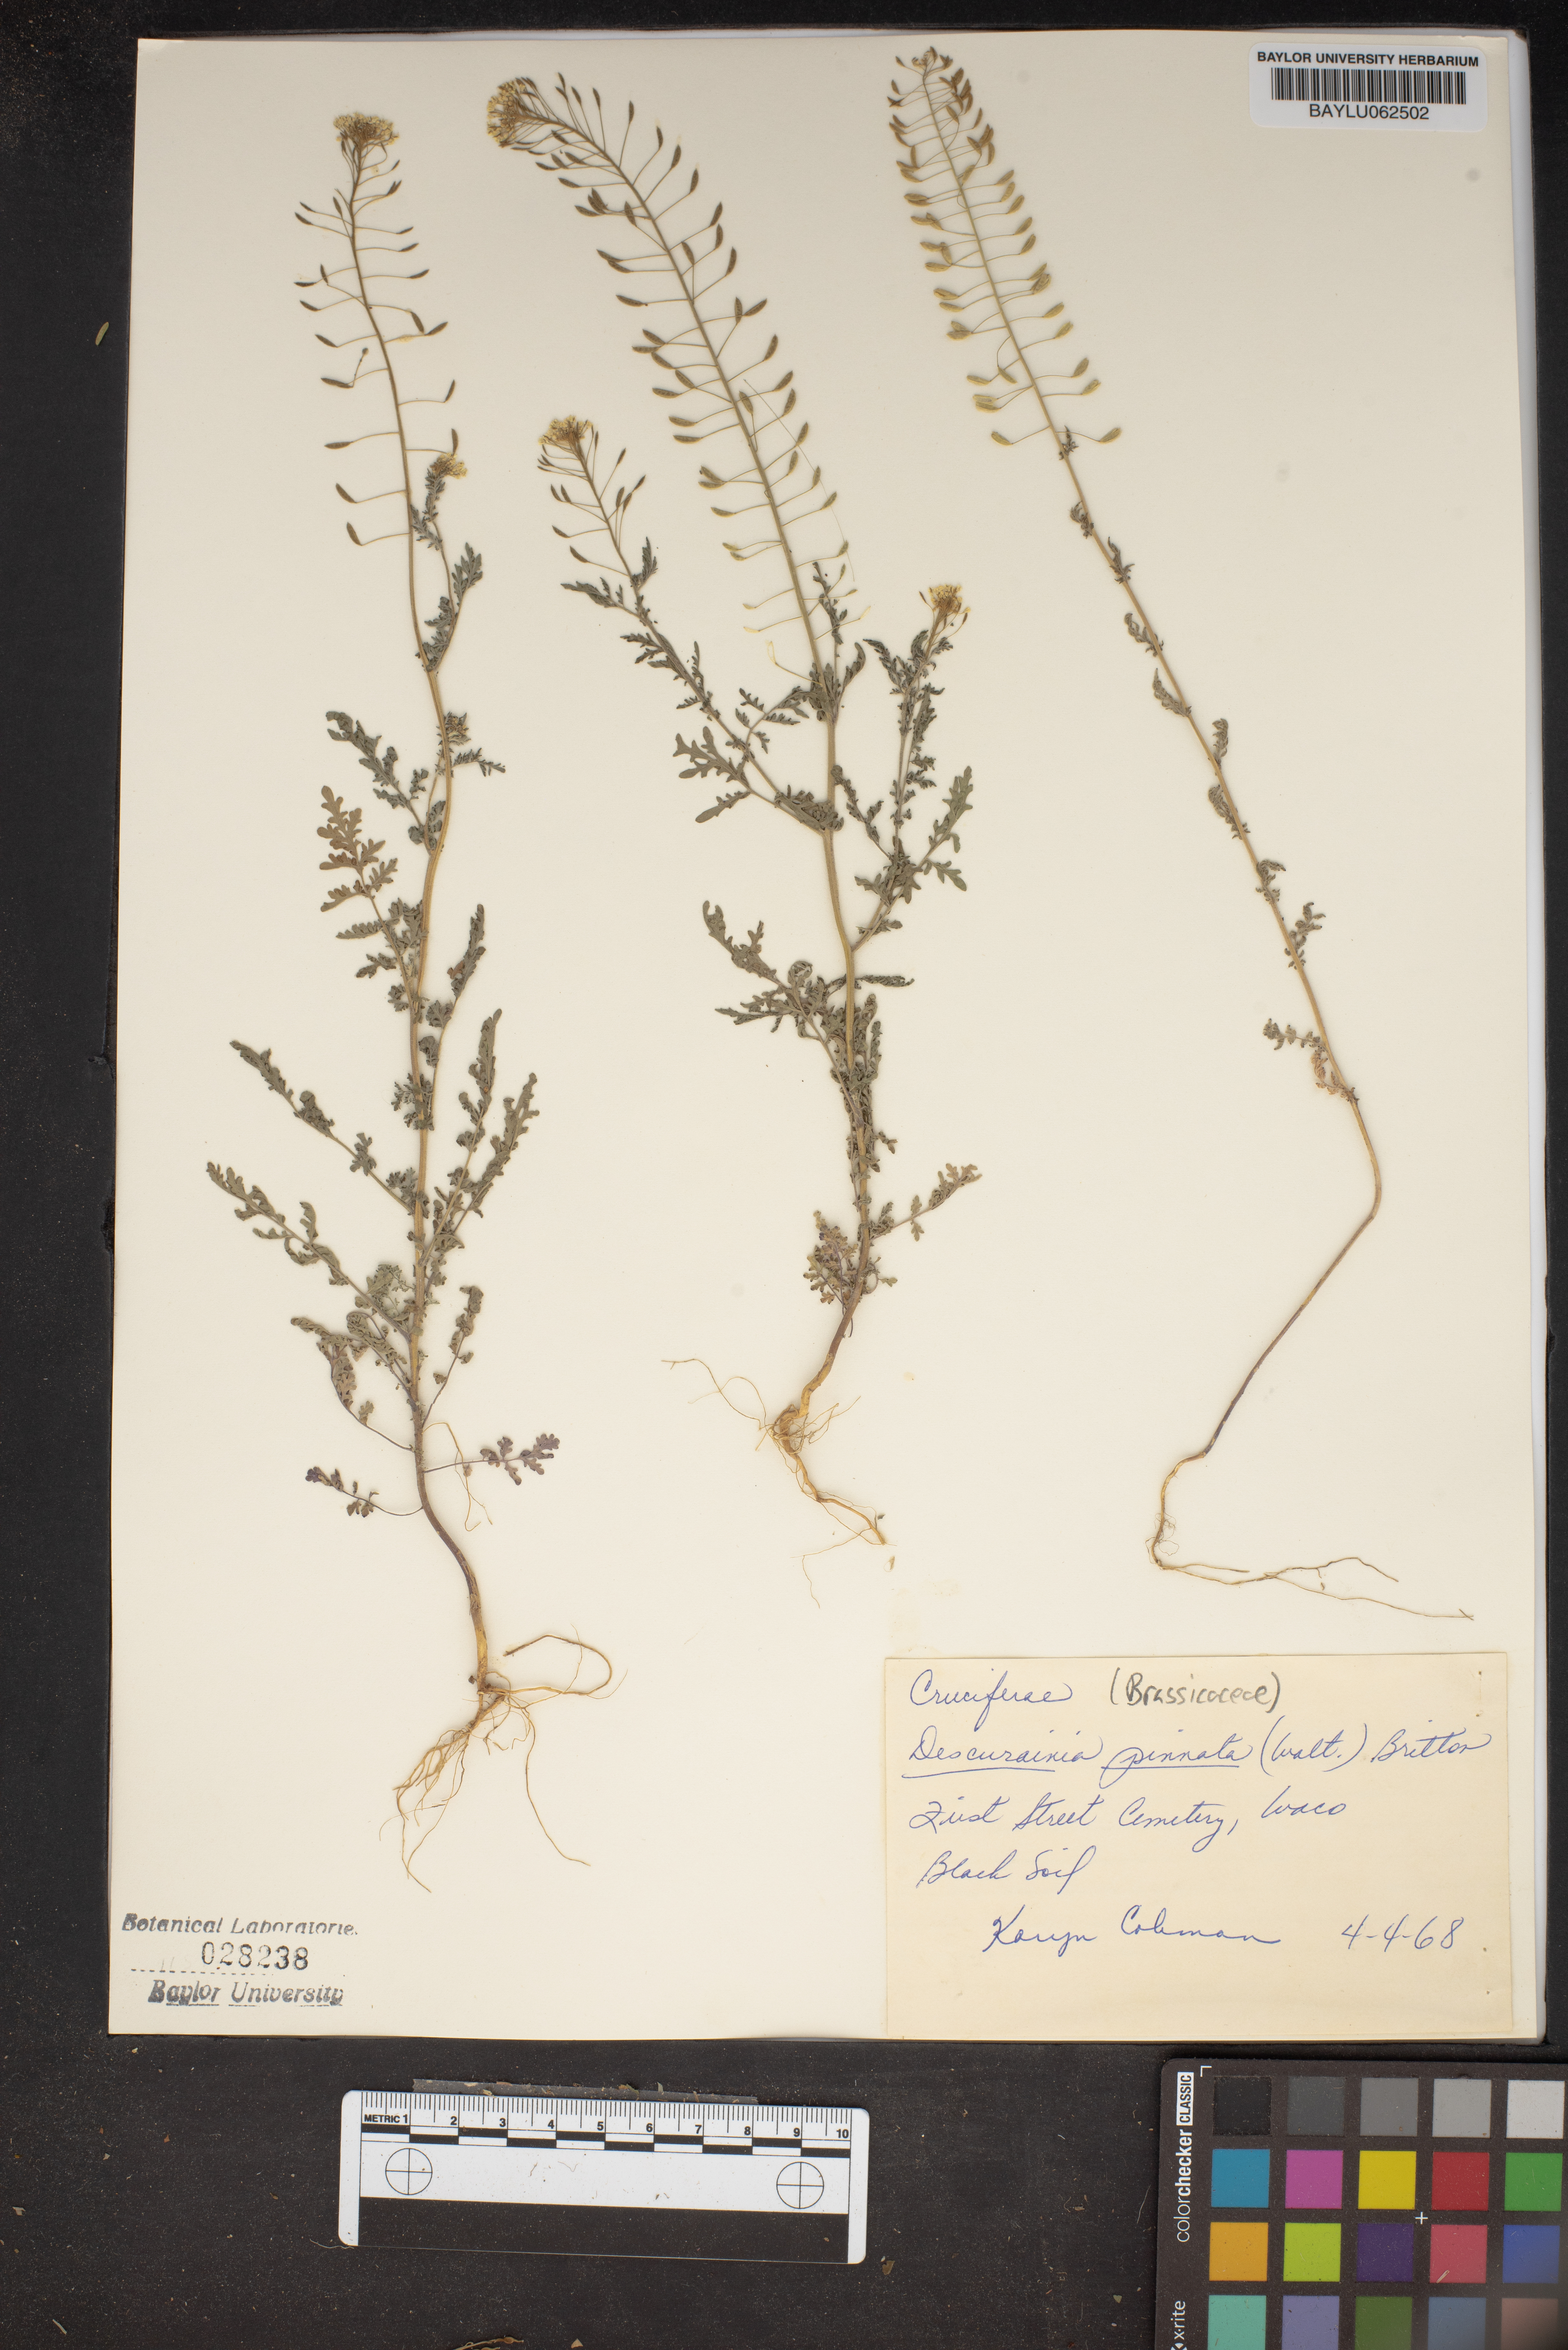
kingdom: Plantae
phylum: Tracheophyta
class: Magnoliopsida
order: Brassicales
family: Brassicaceae
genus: Descurainia
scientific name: Descurainia pinnata
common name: Western tansy mustard
